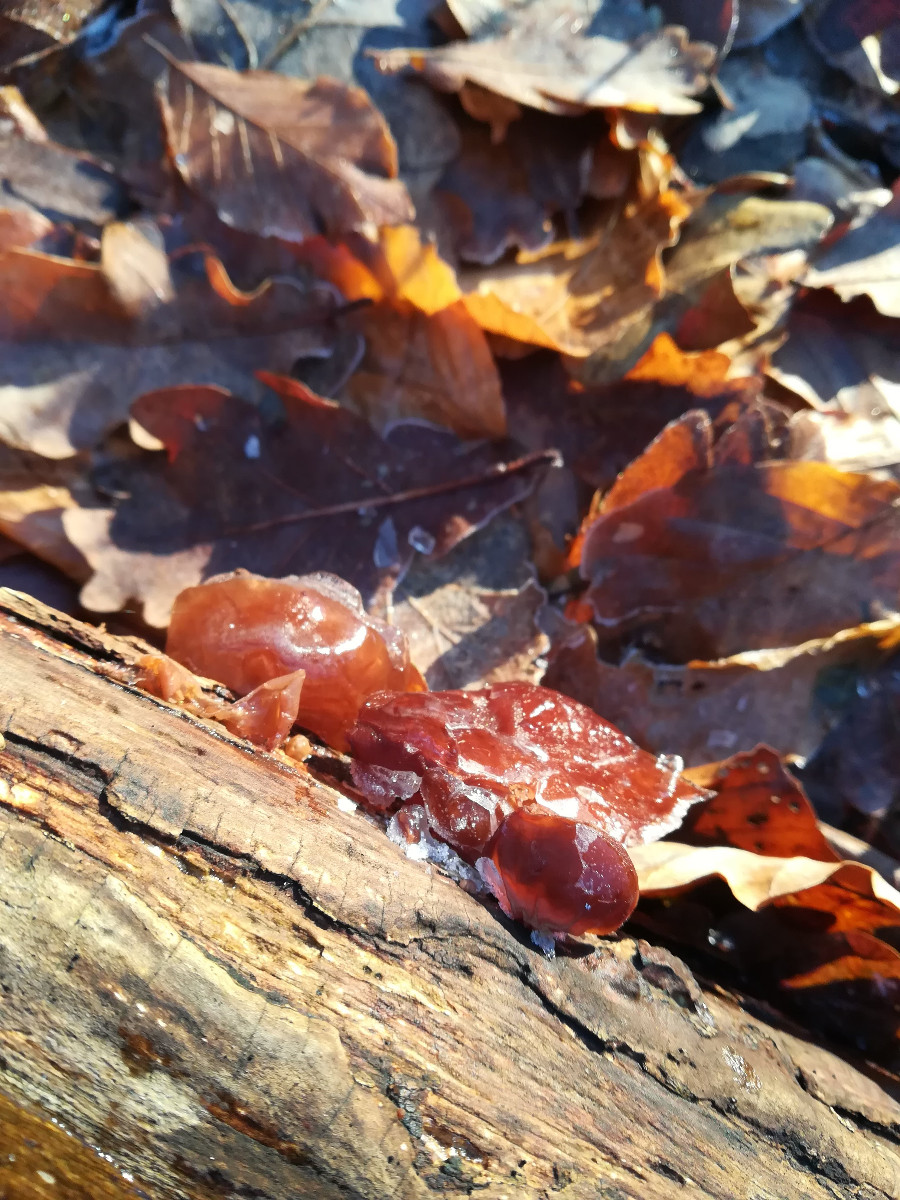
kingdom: Fungi
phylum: Basidiomycota
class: Agaricomycetes
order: Auriculariales
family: Auriculariaceae
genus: Auricularia
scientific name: Auricularia auricula-judae
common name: almindelig judasøre
